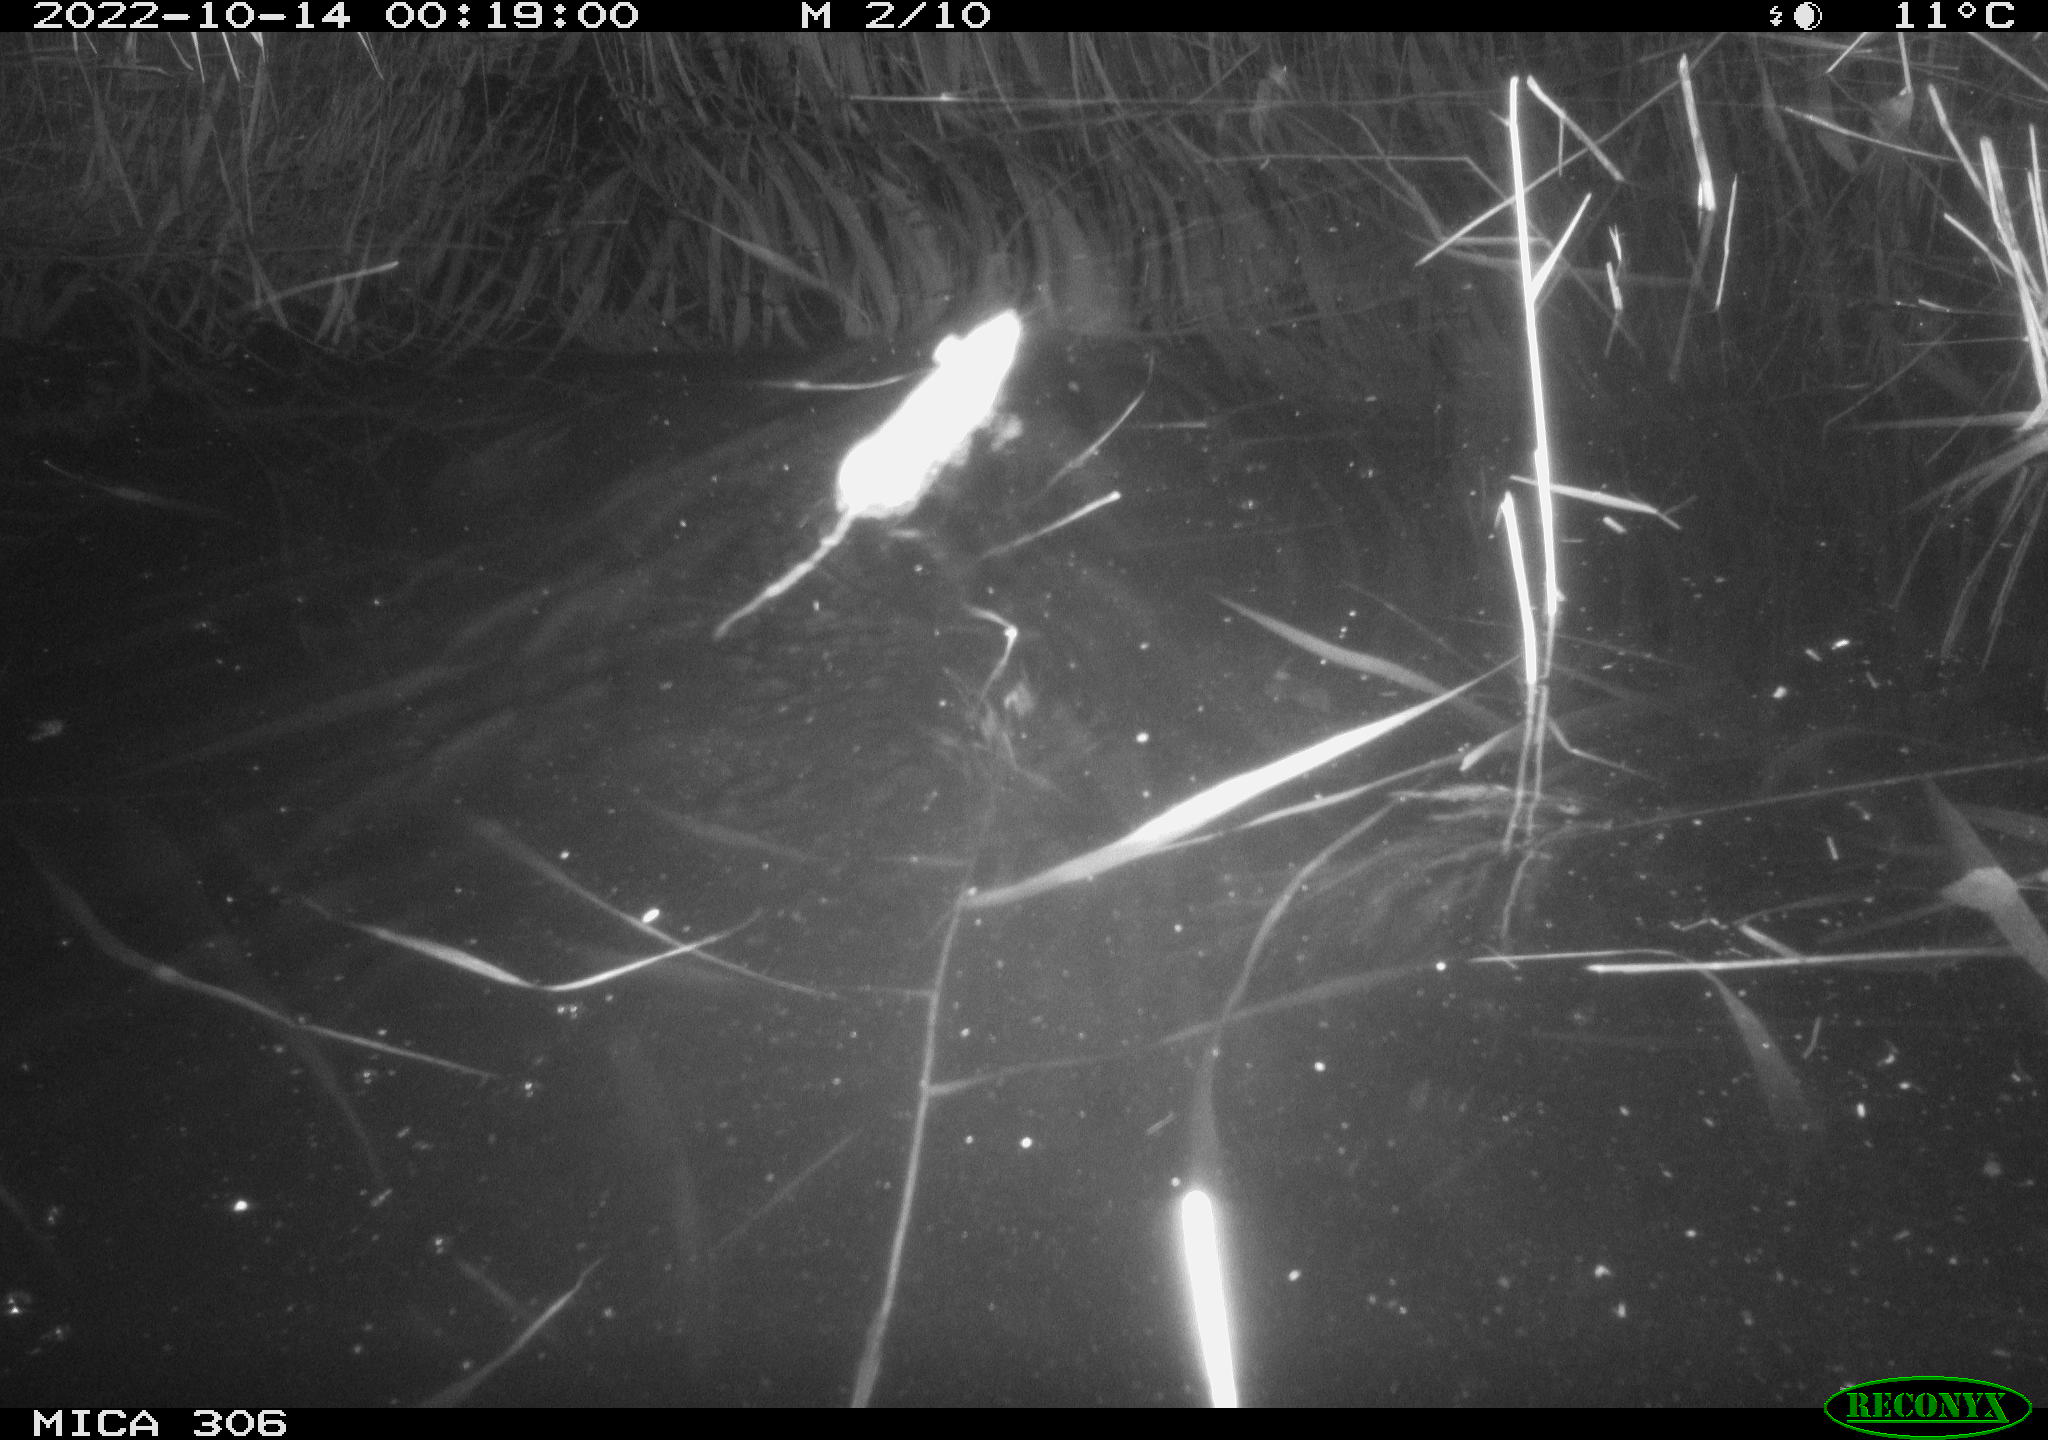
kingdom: Animalia
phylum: Chordata
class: Mammalia
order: Rodentia
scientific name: Rodentia
